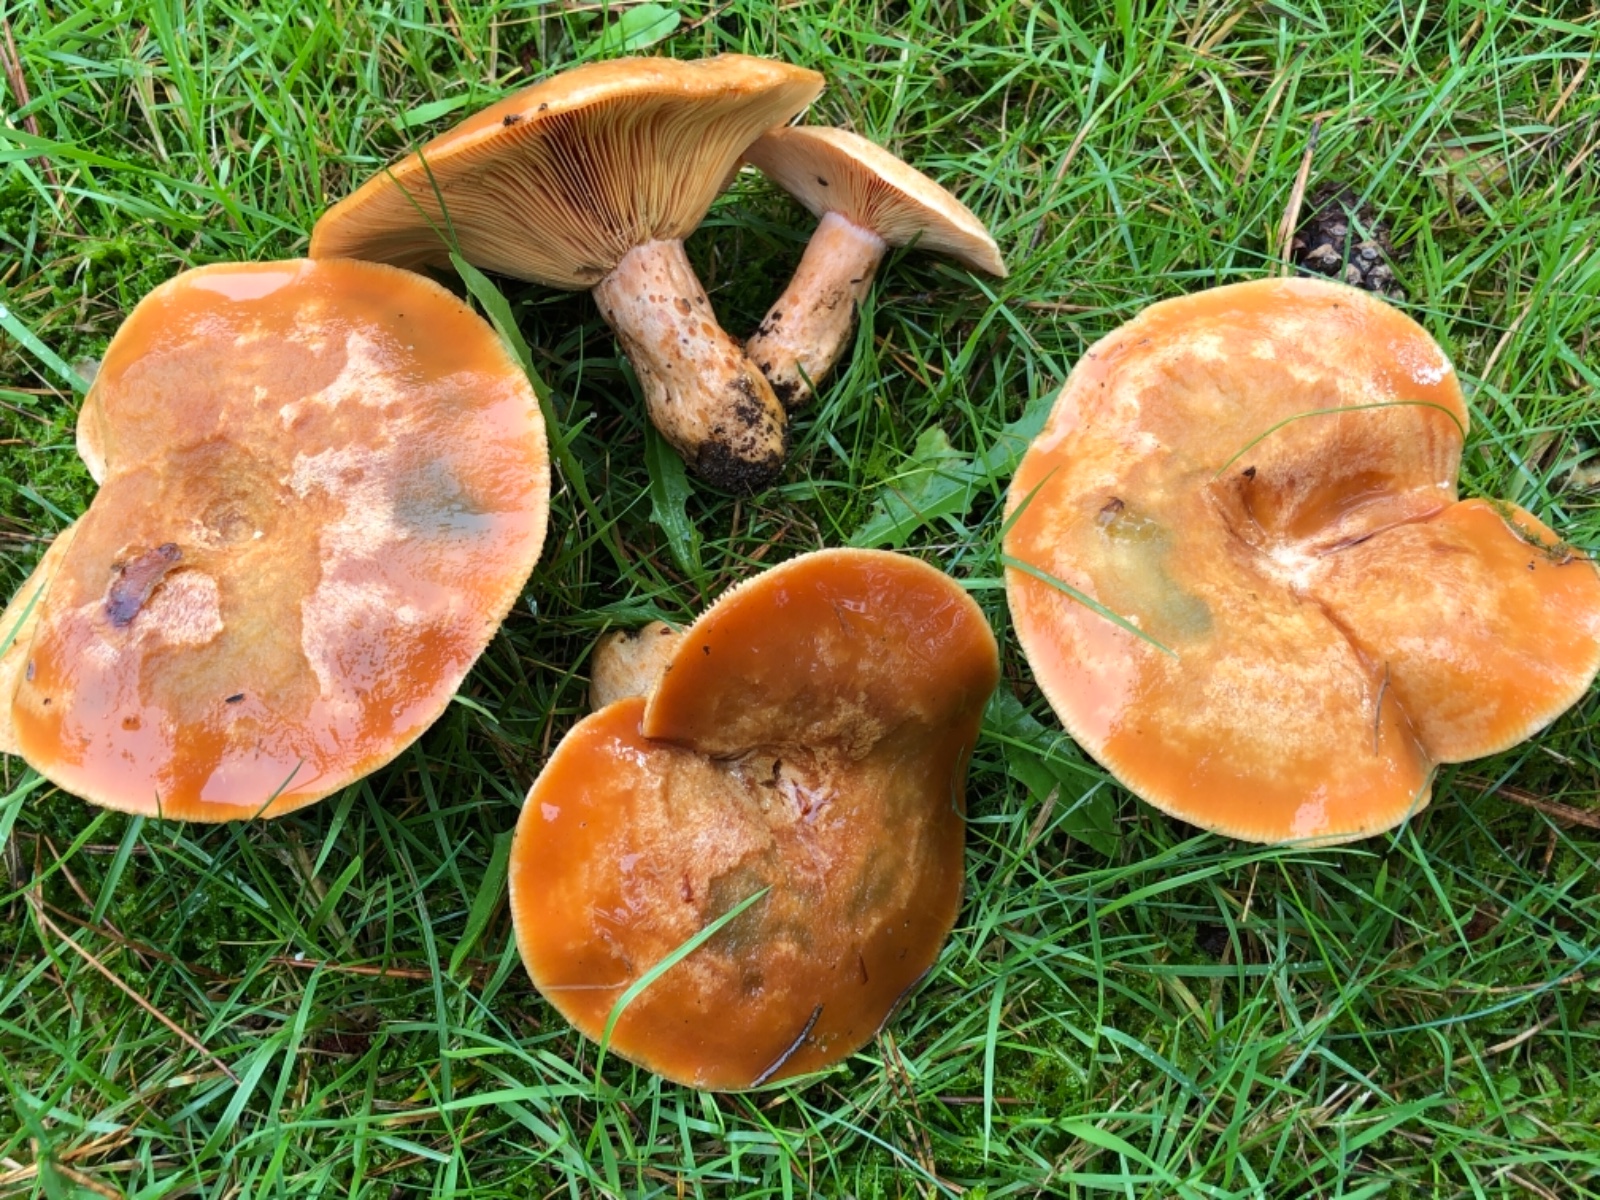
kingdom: Fungi
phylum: Basidiomycota
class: Agaricomycetes
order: Russulales
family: Russulaceae
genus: Lactarius
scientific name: Lactarius deliciosus
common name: velsmagende mælkehat
